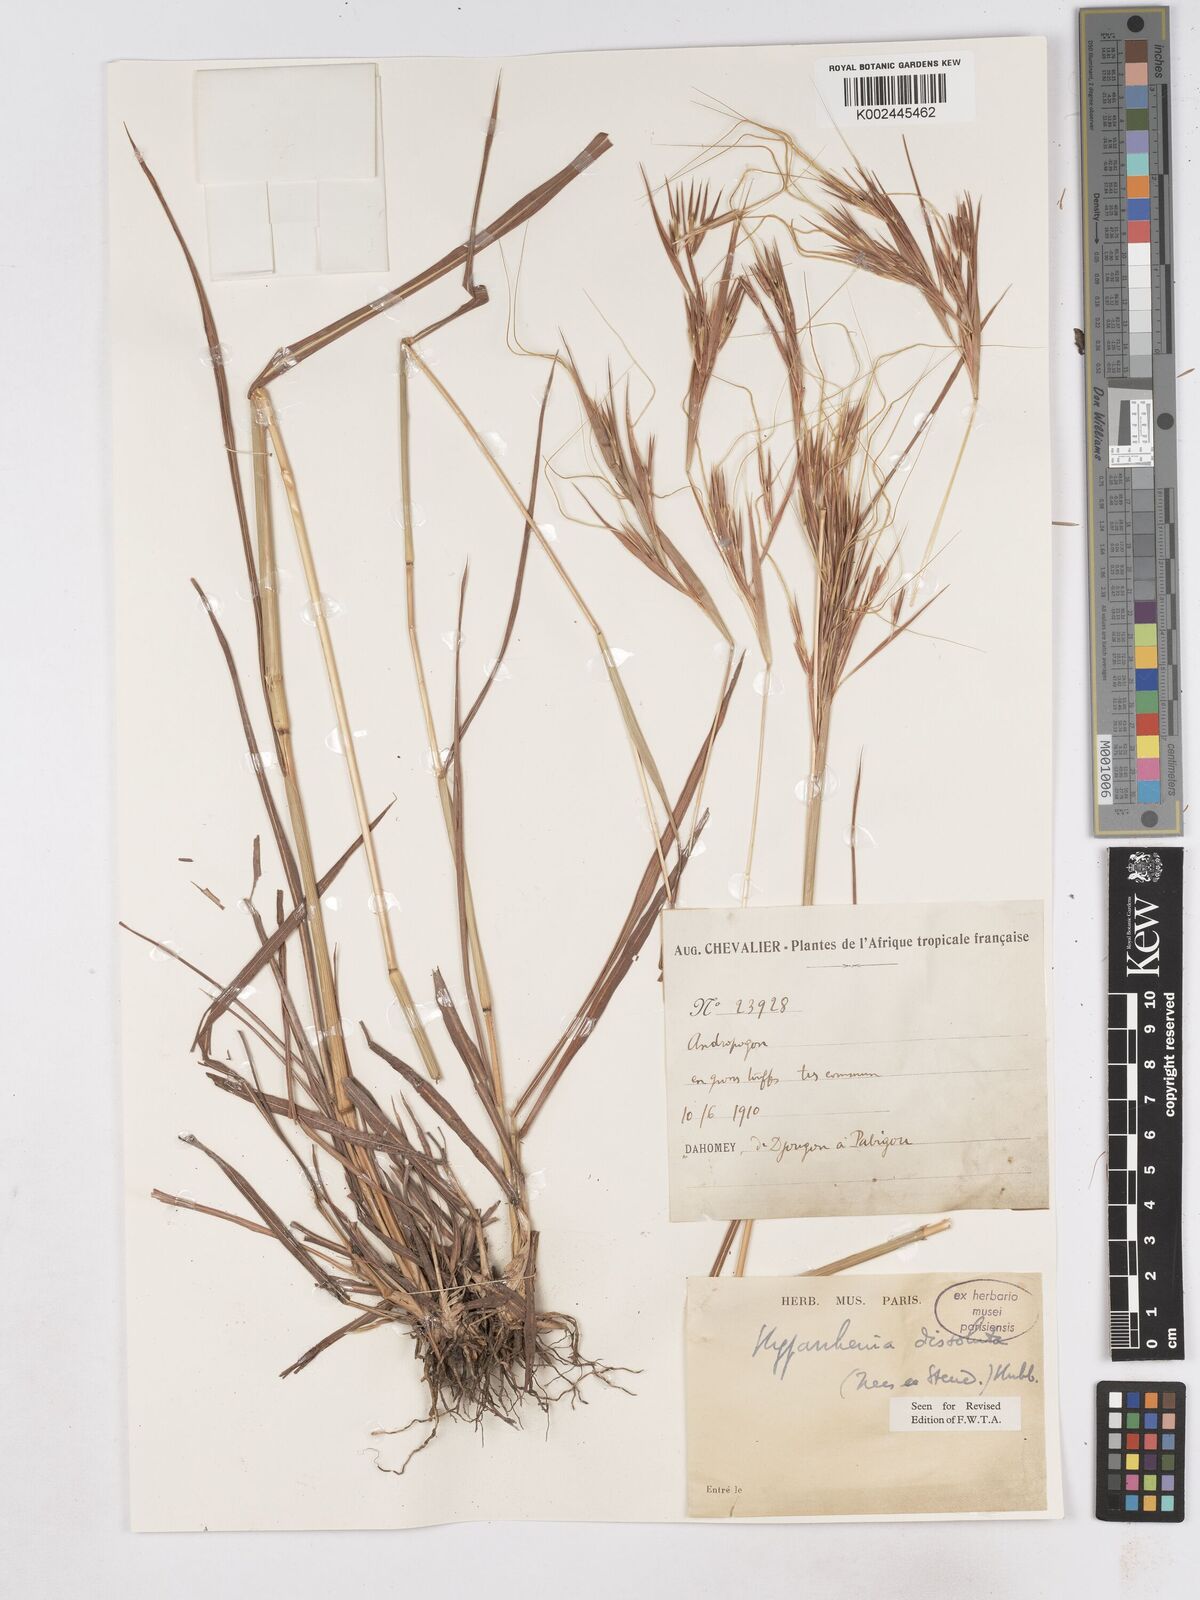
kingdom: Plantae
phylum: Tracheophyta
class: Liliopsida
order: Poales
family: Poaceae
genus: Hyperthelia
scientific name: Hyperthelia dissoluta
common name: Yellow thatching grass
